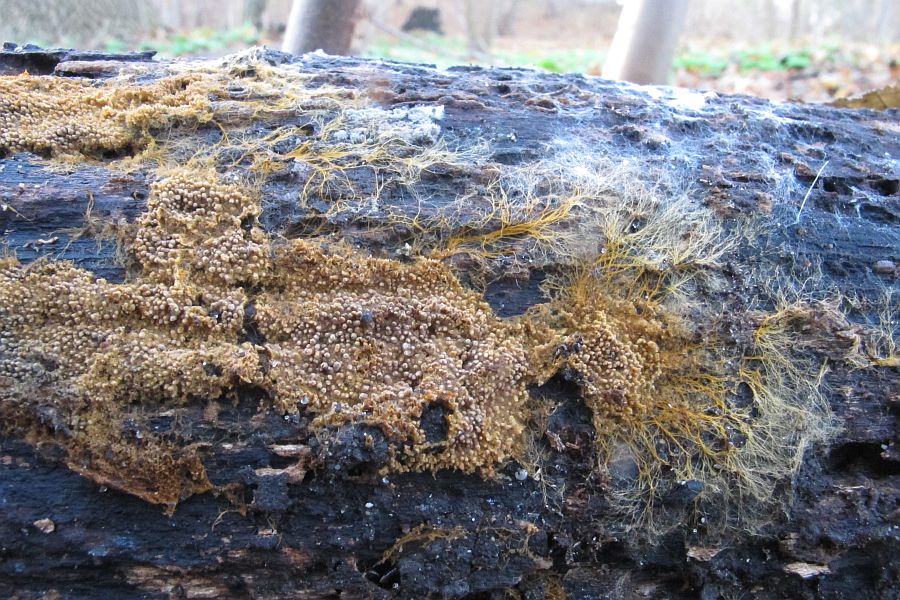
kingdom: Fungi
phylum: Basidiomycota
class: Agaricomycetes
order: Thelephorales
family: Thelephoraceae
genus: Odontia
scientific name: Odontia ferruginea
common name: pigget frynsehinde
